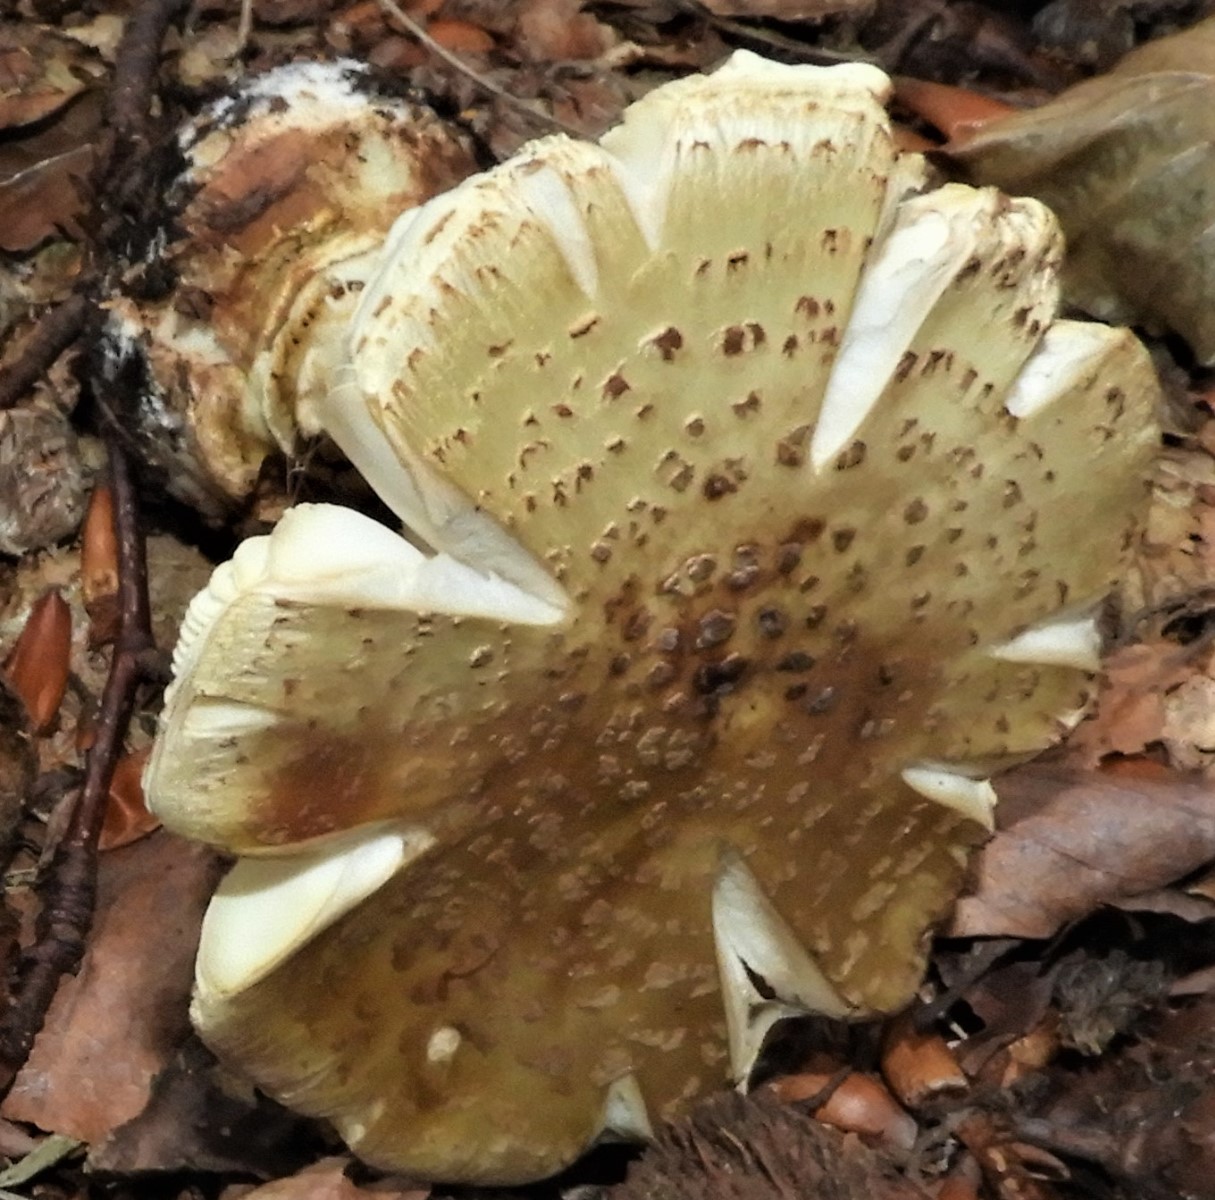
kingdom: Fungi
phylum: Basidiomycota
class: Agaricomycetes
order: Agaricales
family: Amanitaceae
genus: Amanita
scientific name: Amanita citrina
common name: kugleknoldet fluesvamp
